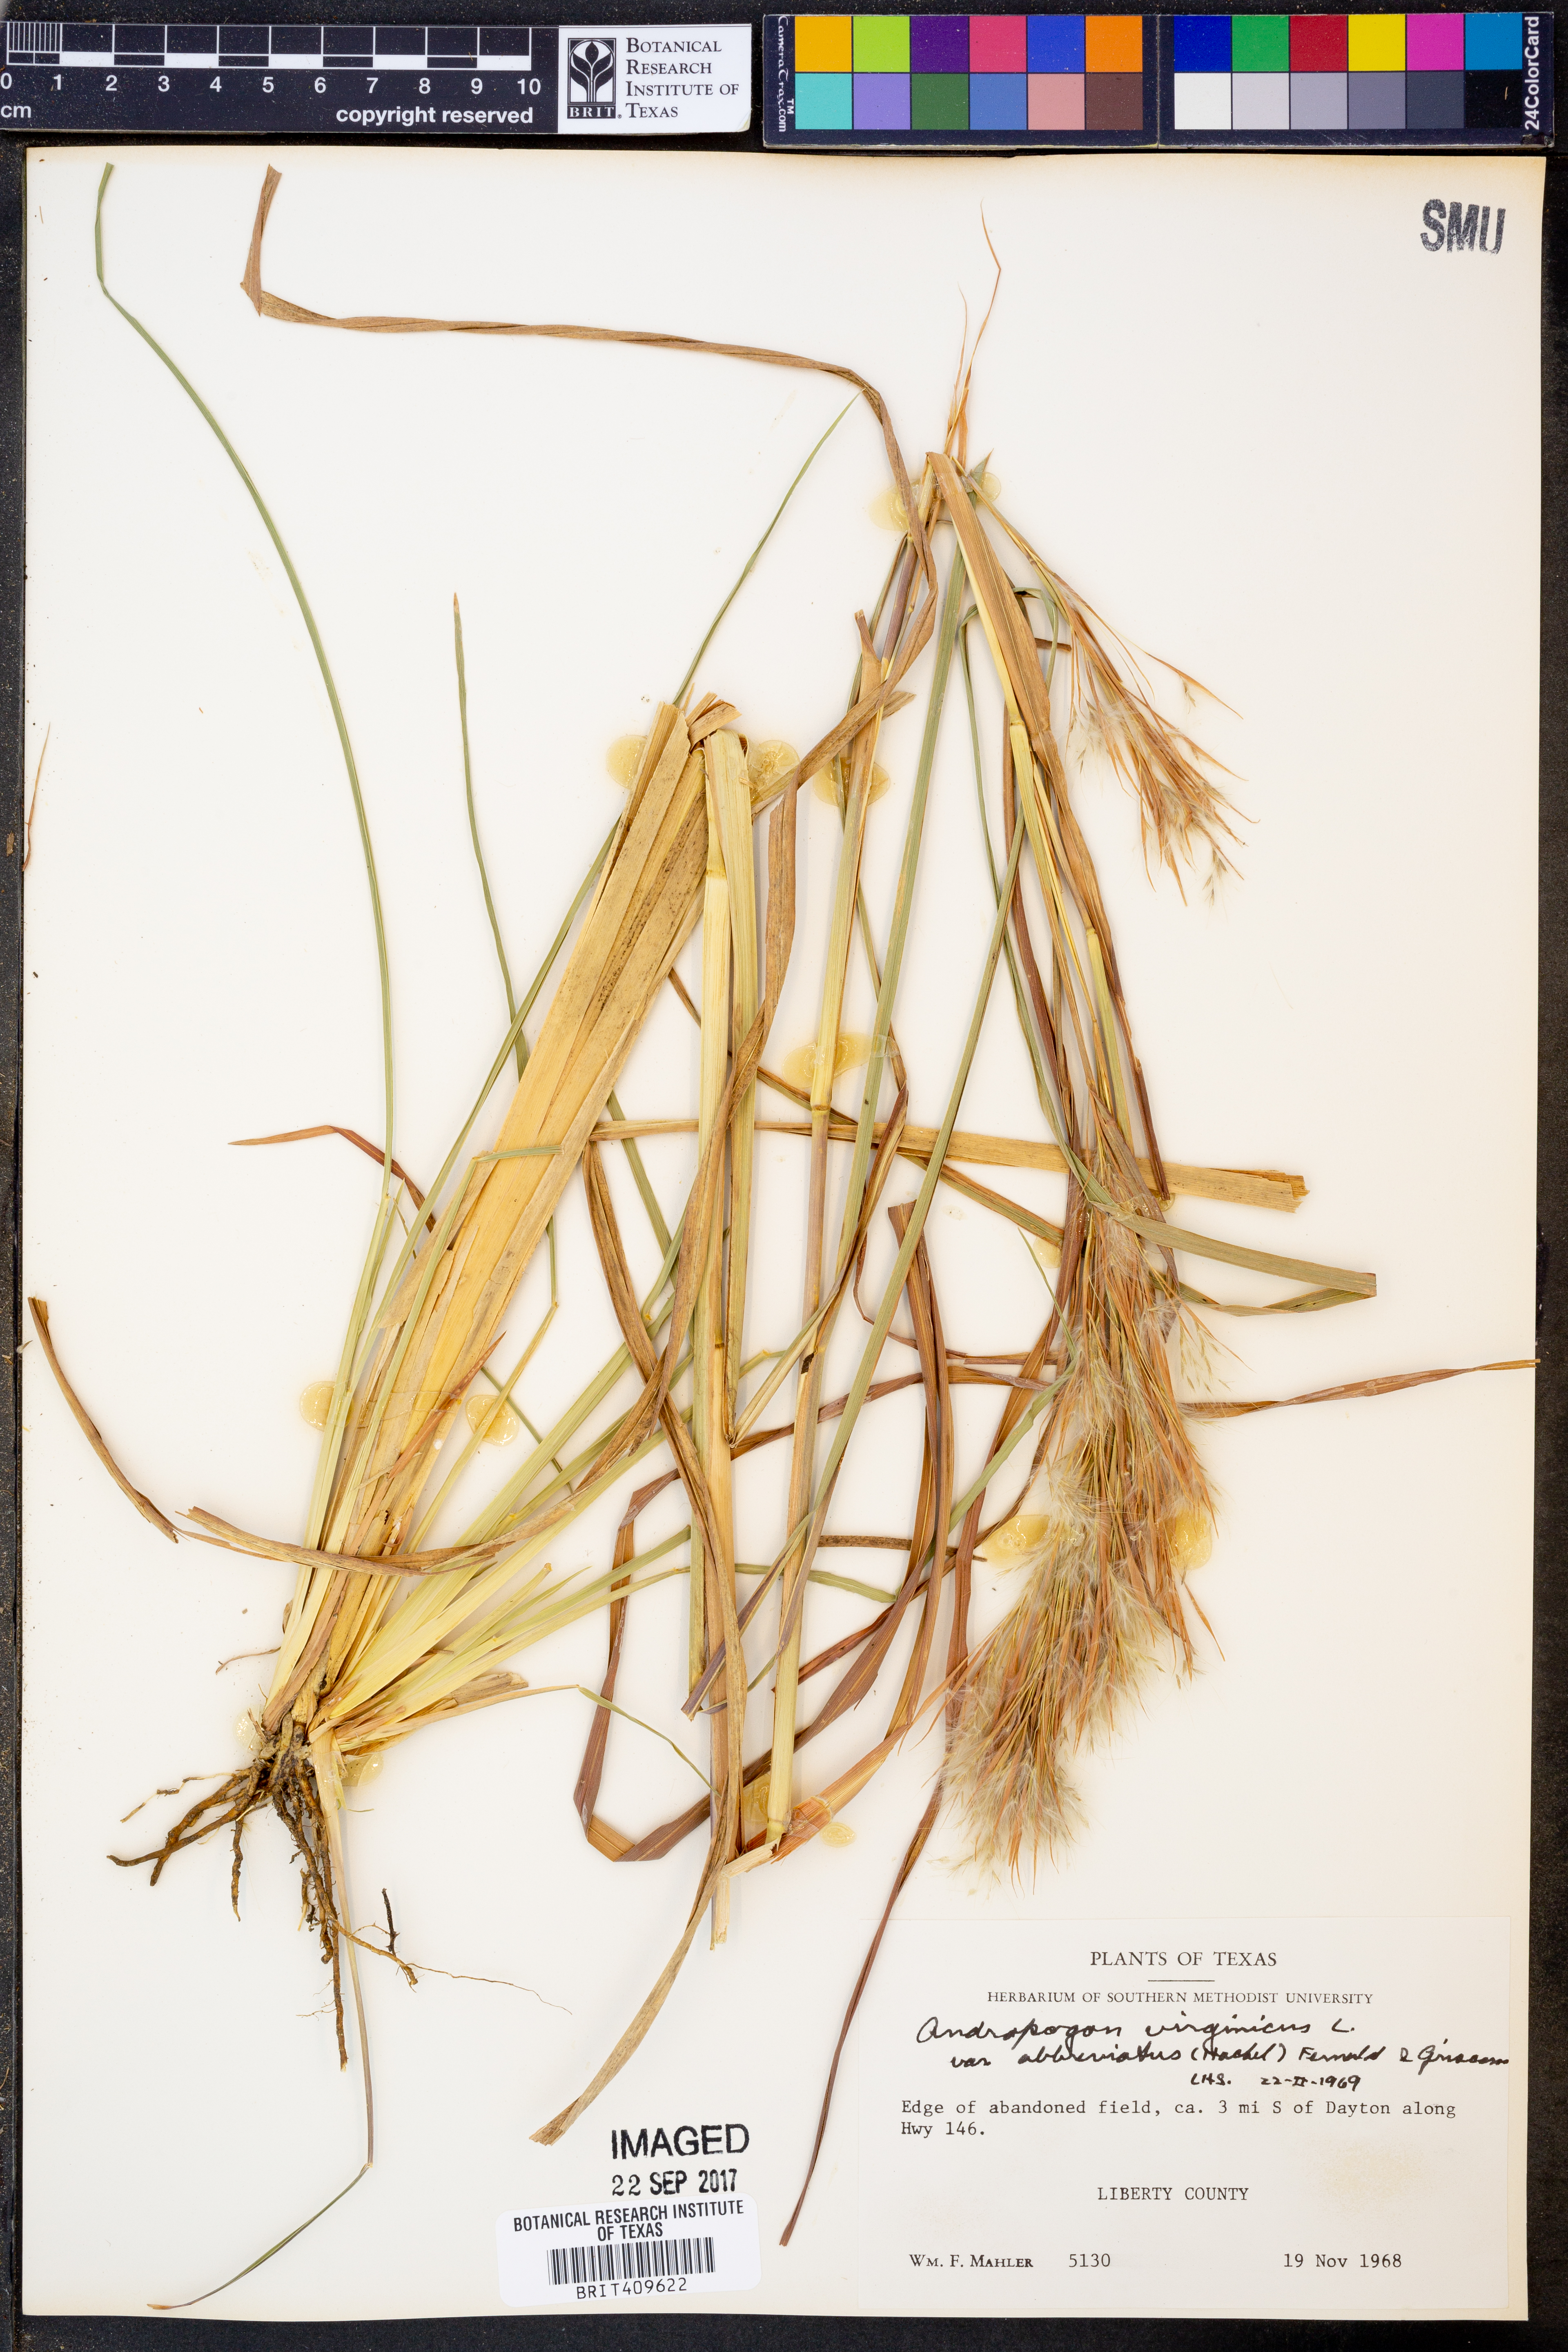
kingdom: Plantae
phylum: Tracheophyta
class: Liliopsida
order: Poales
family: Poaceae
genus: Andropogon
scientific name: Andropogon glomeratus
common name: Bushy beard grass
